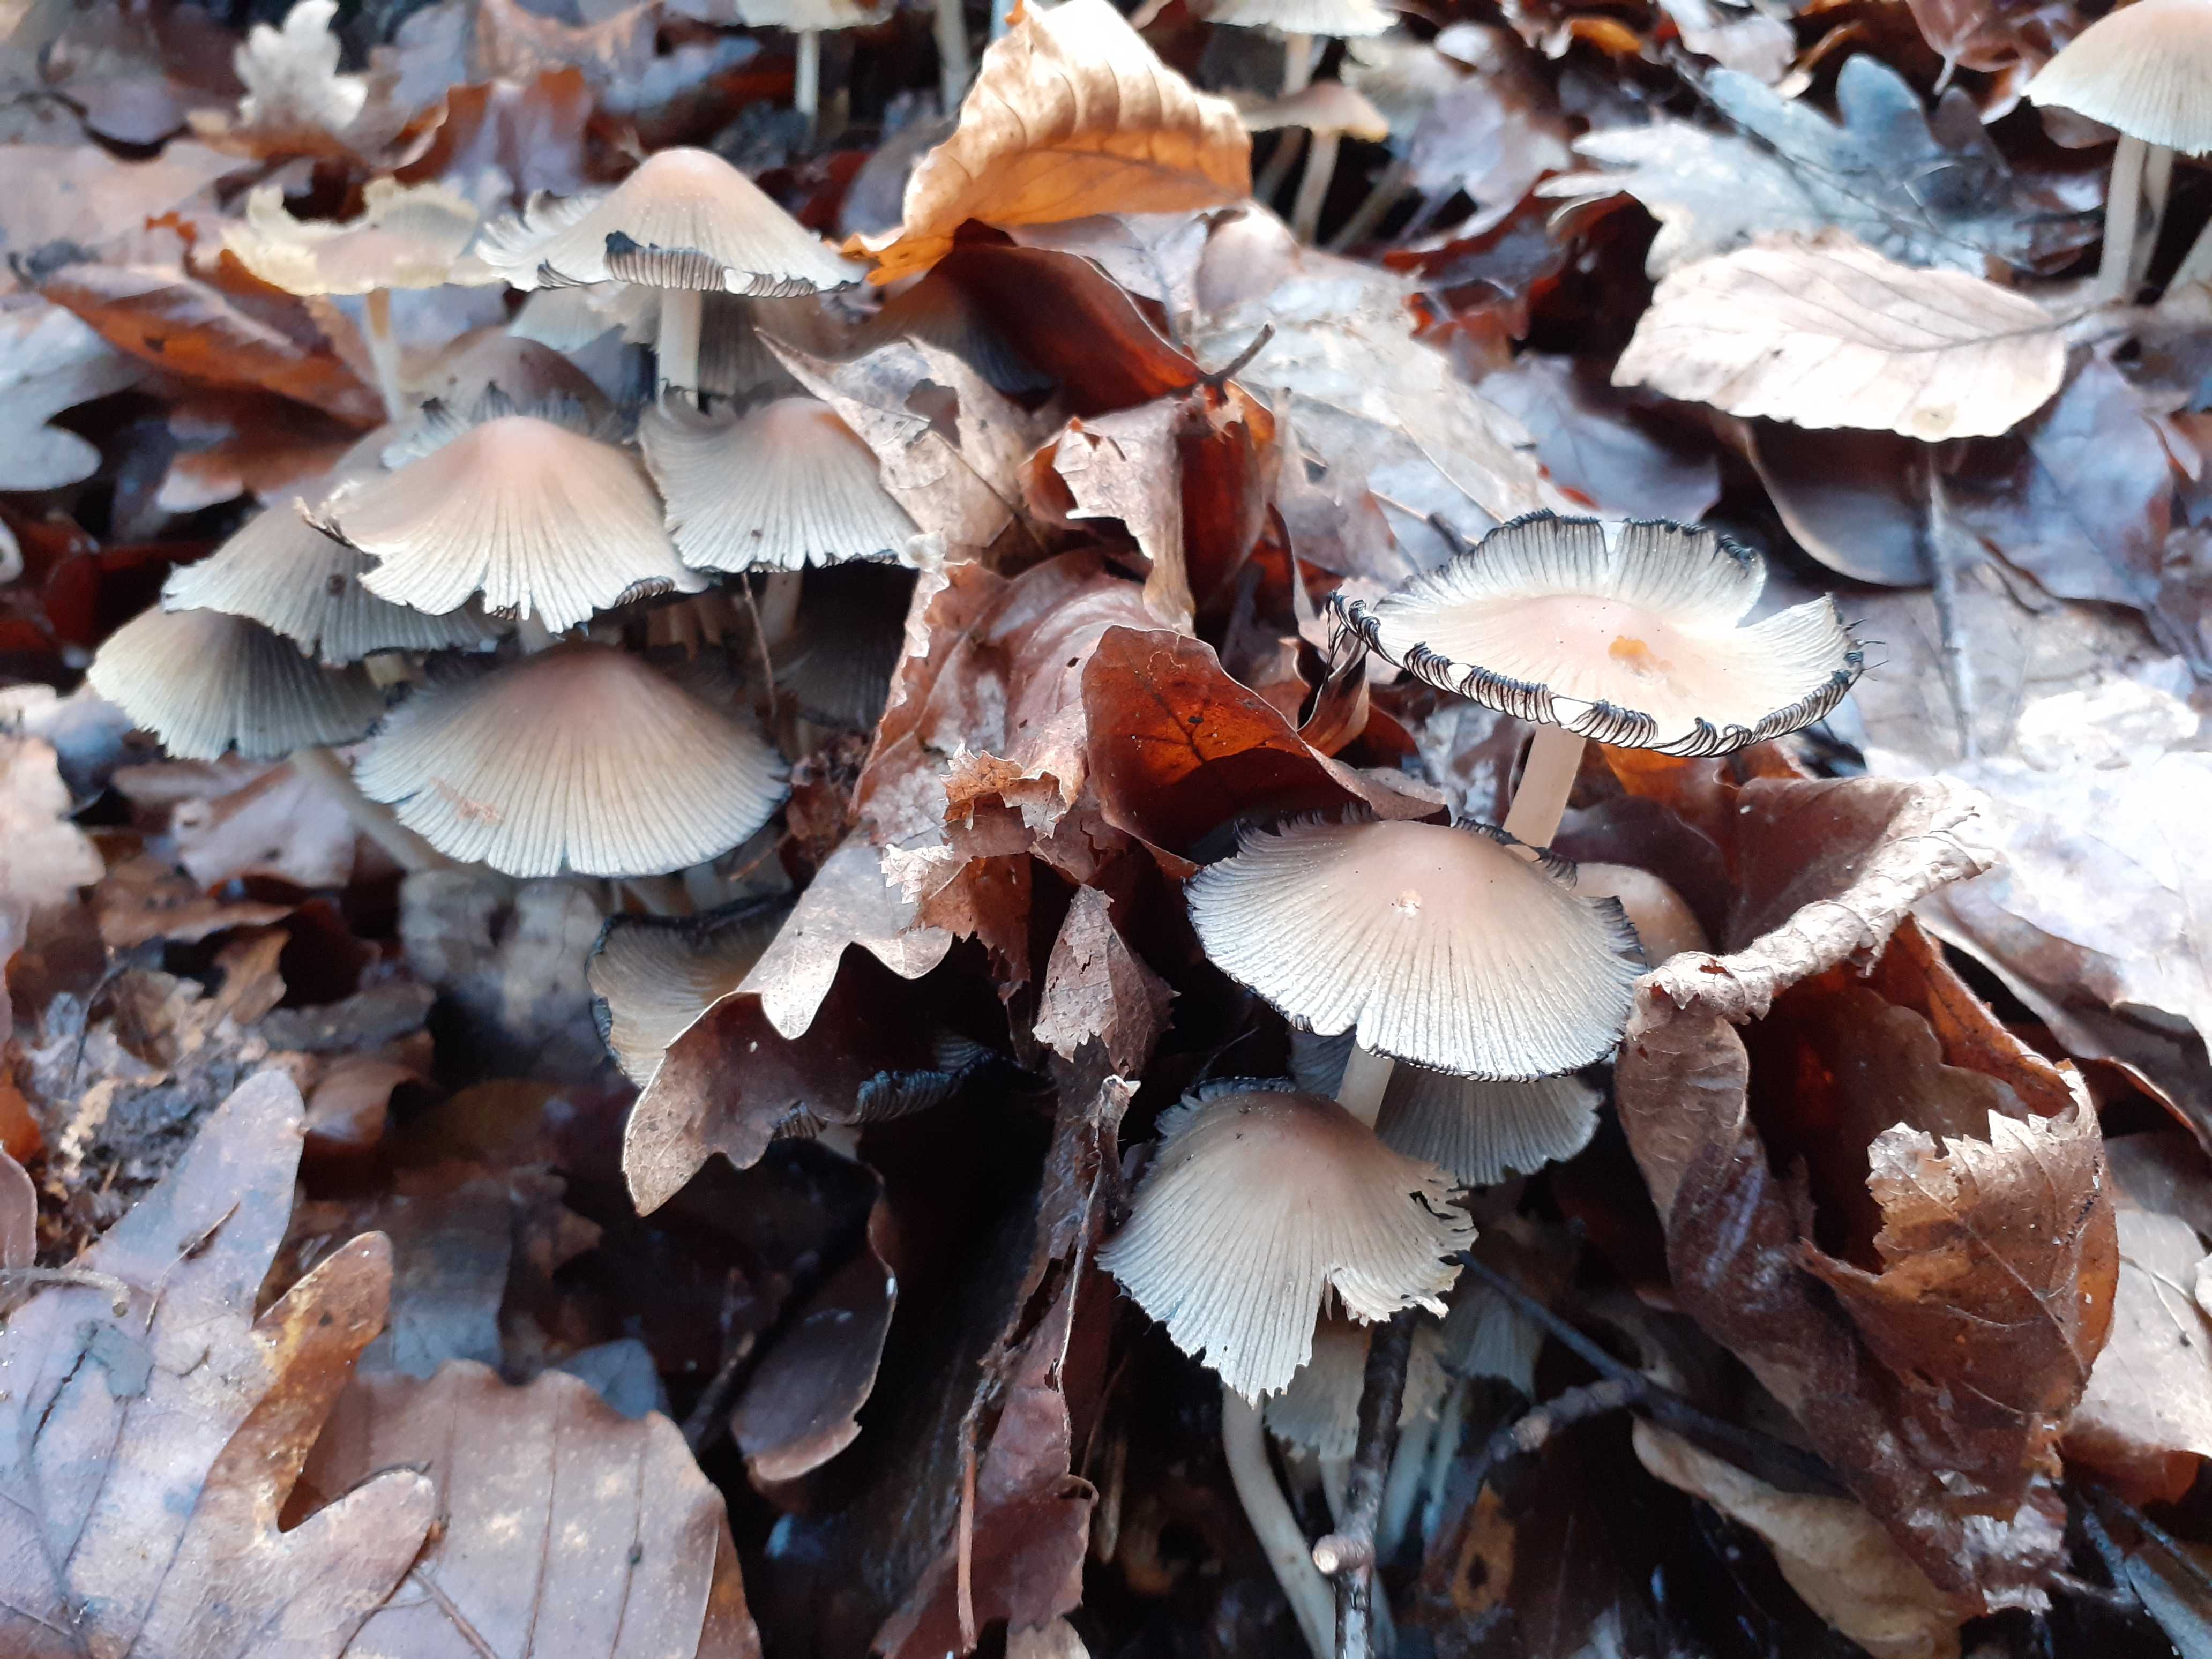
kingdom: Fungi
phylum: Basidiomycota
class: Agaricomycetes
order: Agaricales
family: Psathyrellaceae
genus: Coprinellus
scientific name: Coprinellus micaceus
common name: glimmer-blækhat
